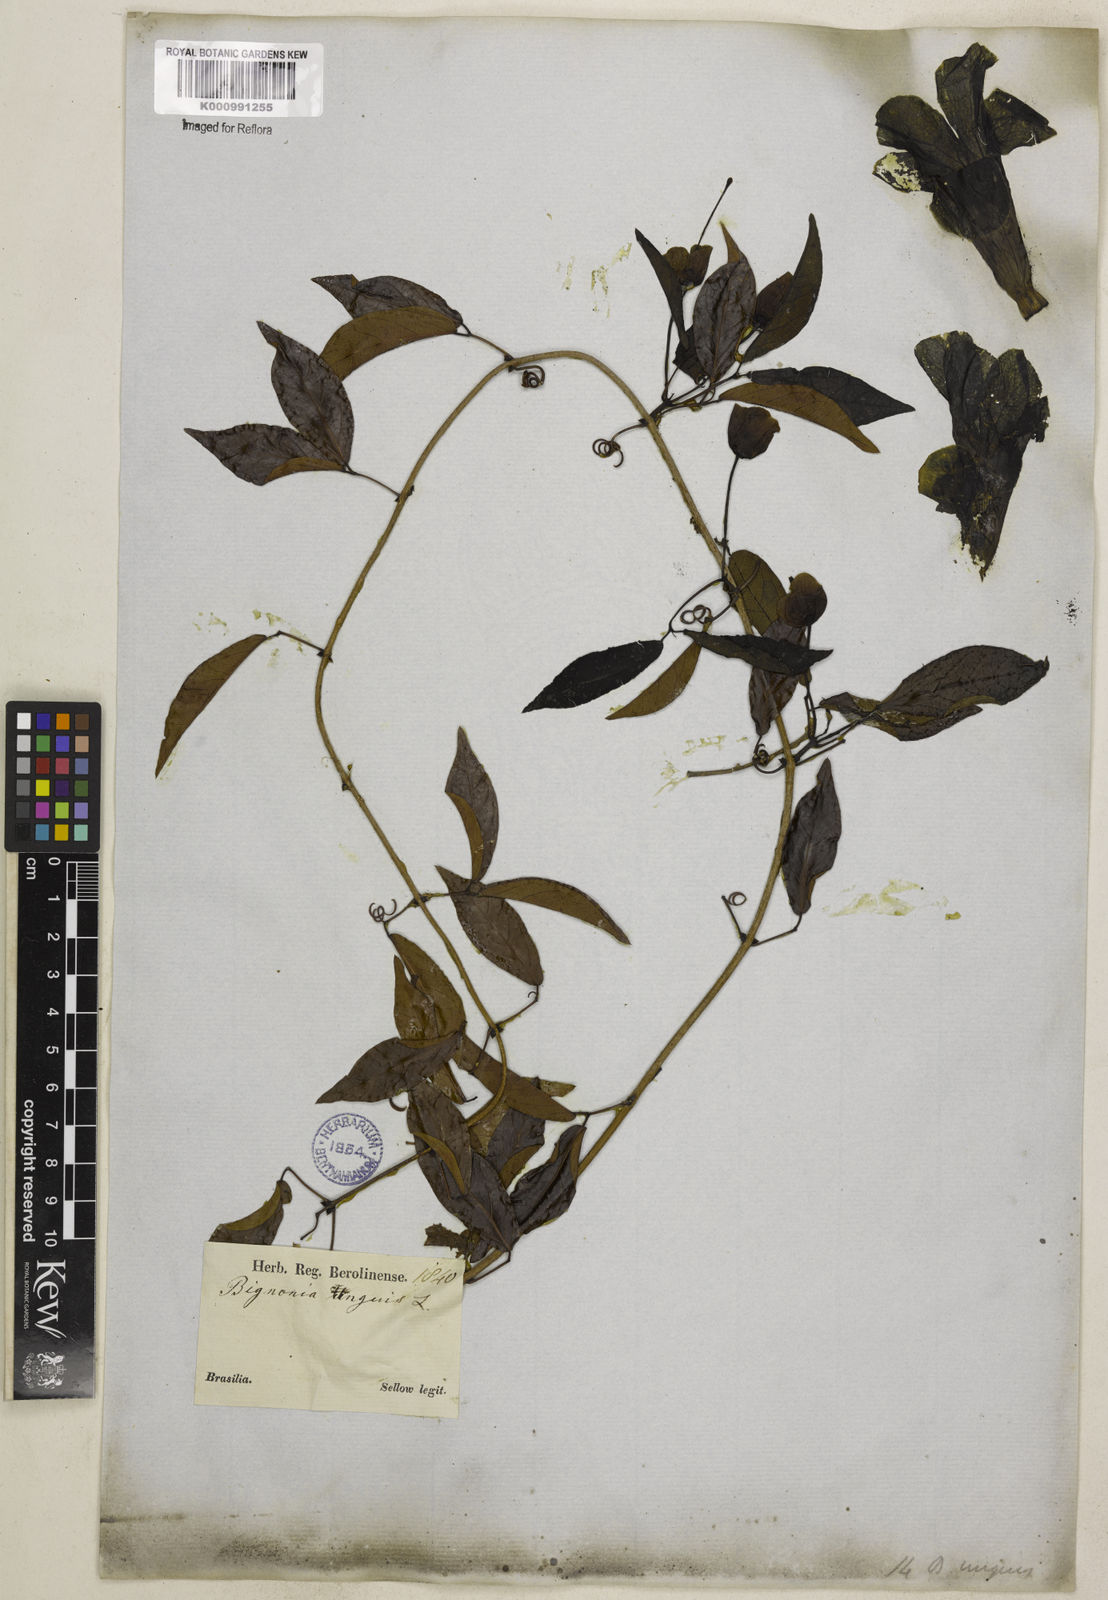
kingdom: Plantae
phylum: Tracheophyta
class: Magnoliopsida
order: Lamiales
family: Bignoniaceae
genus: Dolichandra
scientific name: Dolichandra unguis-cati
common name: Catclaw vine
